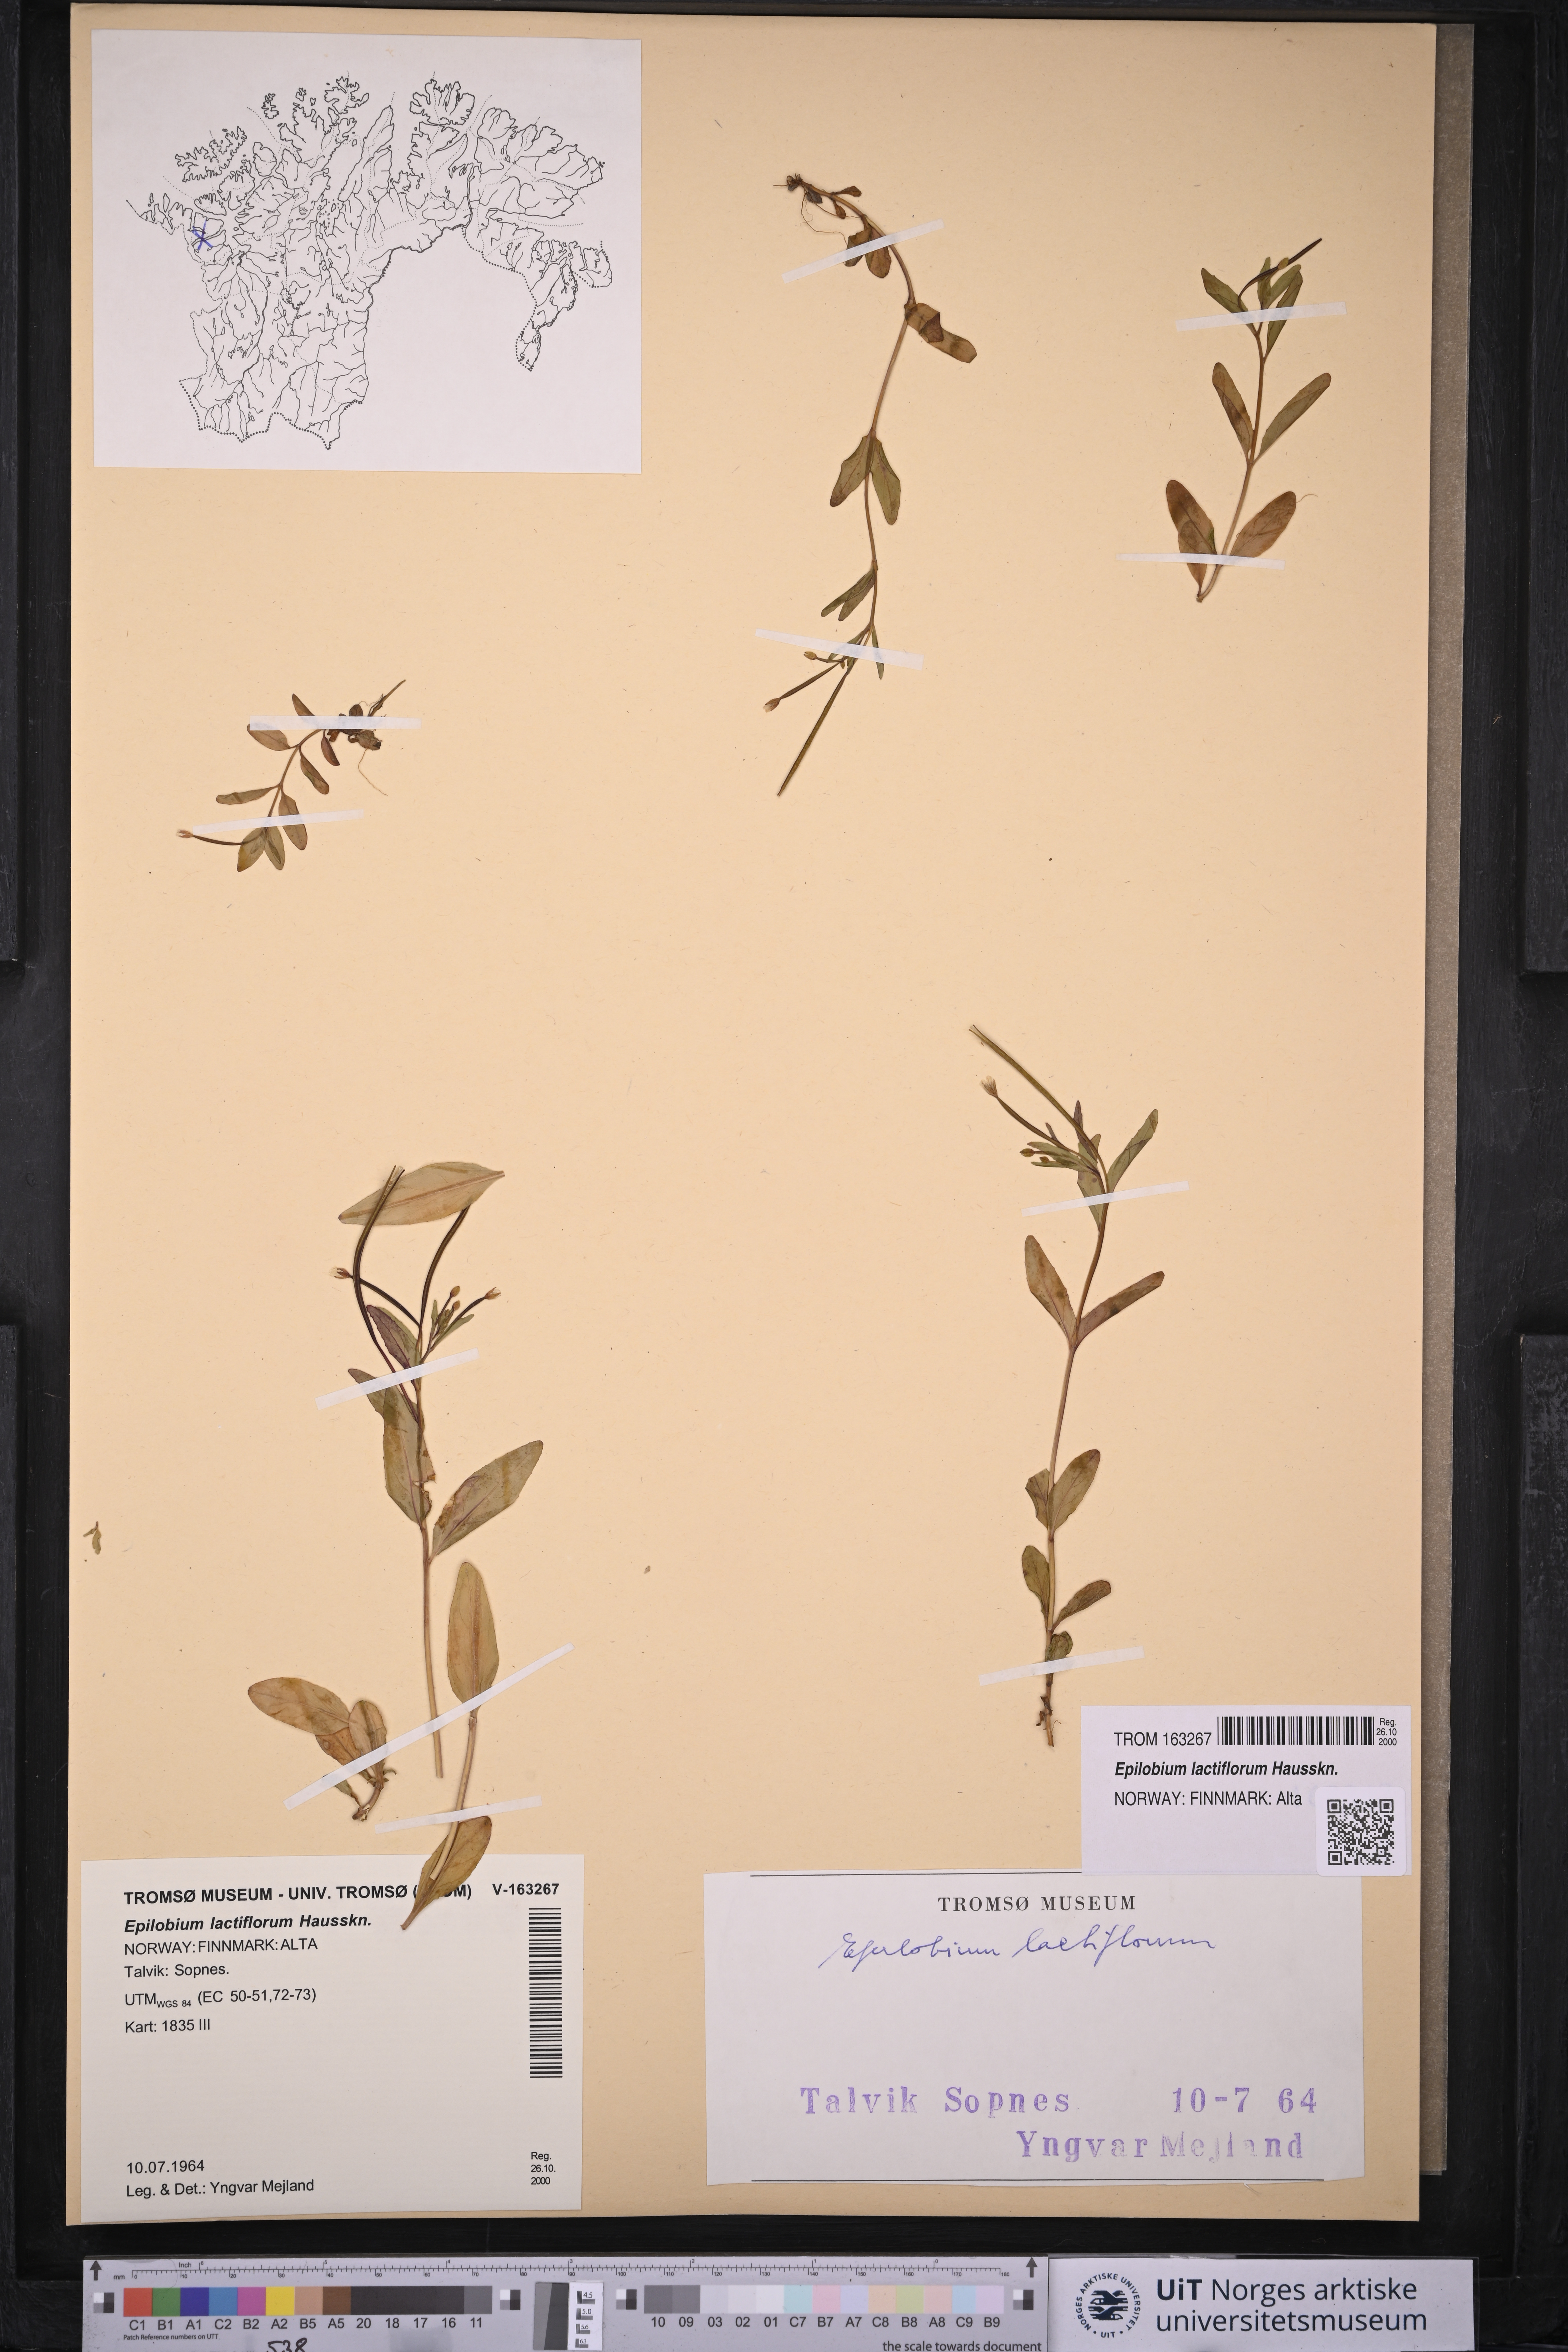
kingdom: Plantae
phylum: Tracheophyta
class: Magnoliopsida
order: Myrtales
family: Onagraceae
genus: Epilobium
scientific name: Epilobium lactiflorum
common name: Milkflower willowherb
